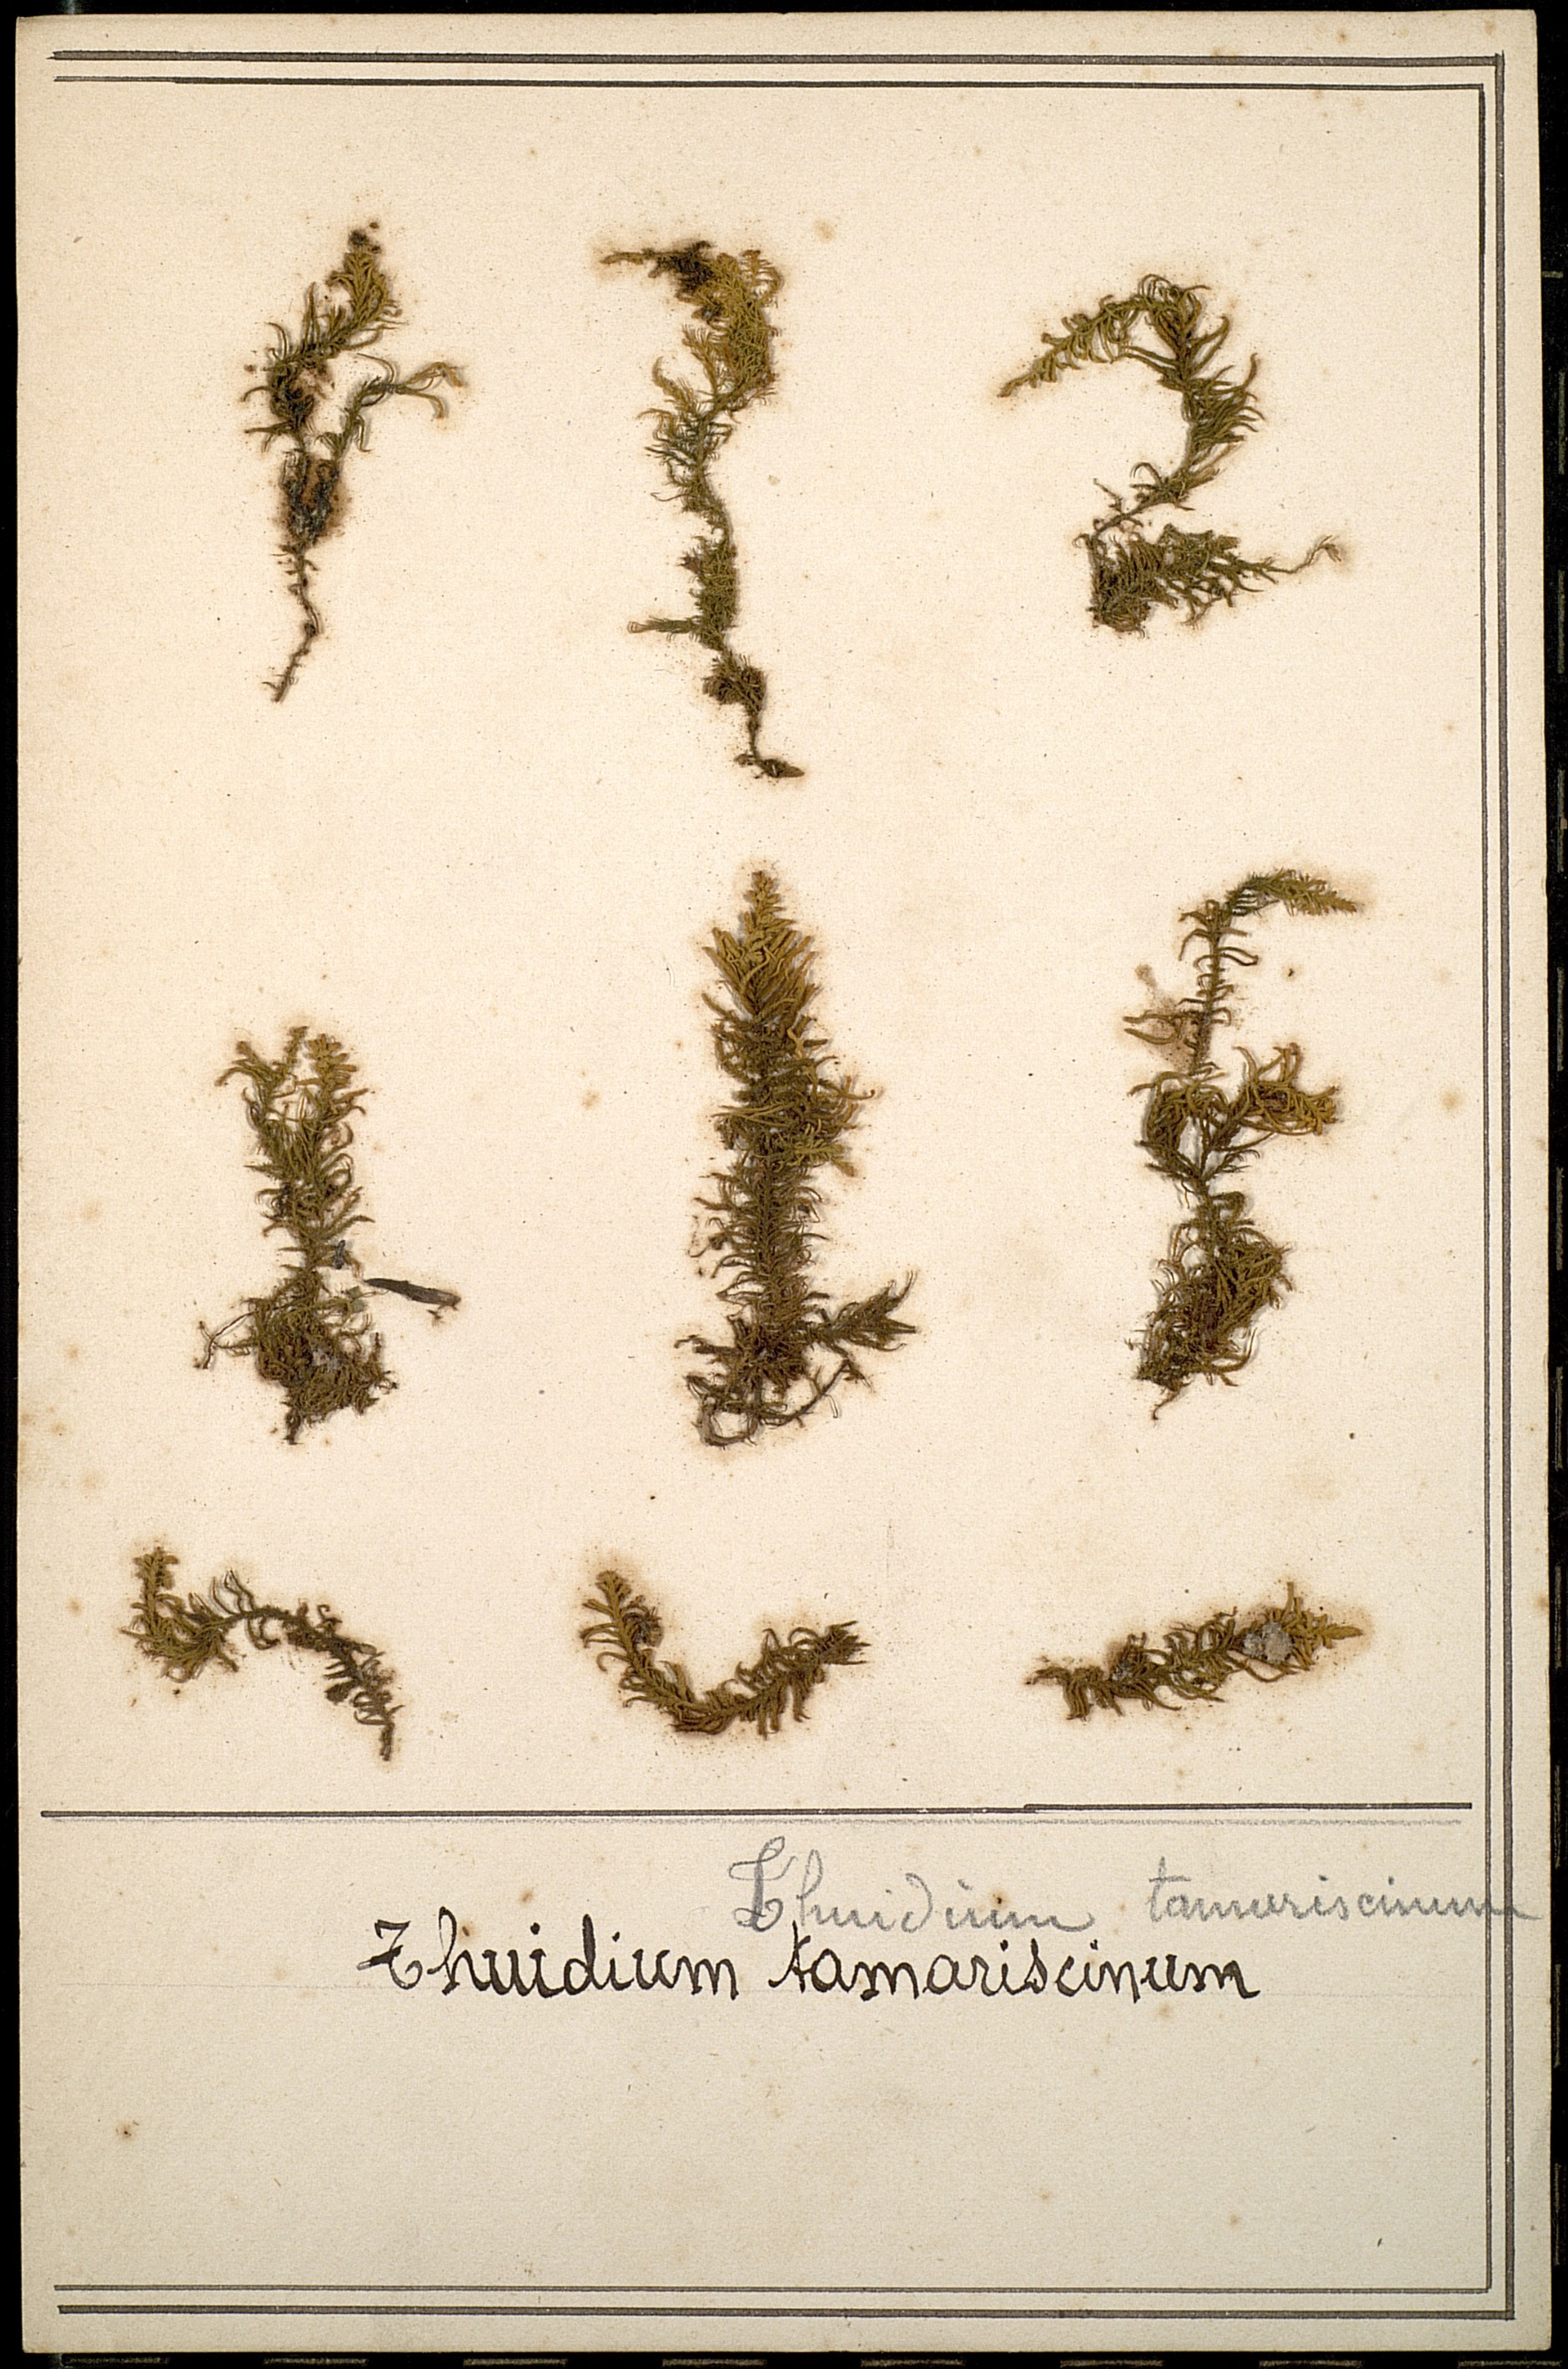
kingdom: Plantae
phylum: Bryophyta
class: Bryopsida
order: Hypnales
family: Thuidiaceae
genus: Thuidium
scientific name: Thuidium tamariscinum
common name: Common tamarisk-moss
